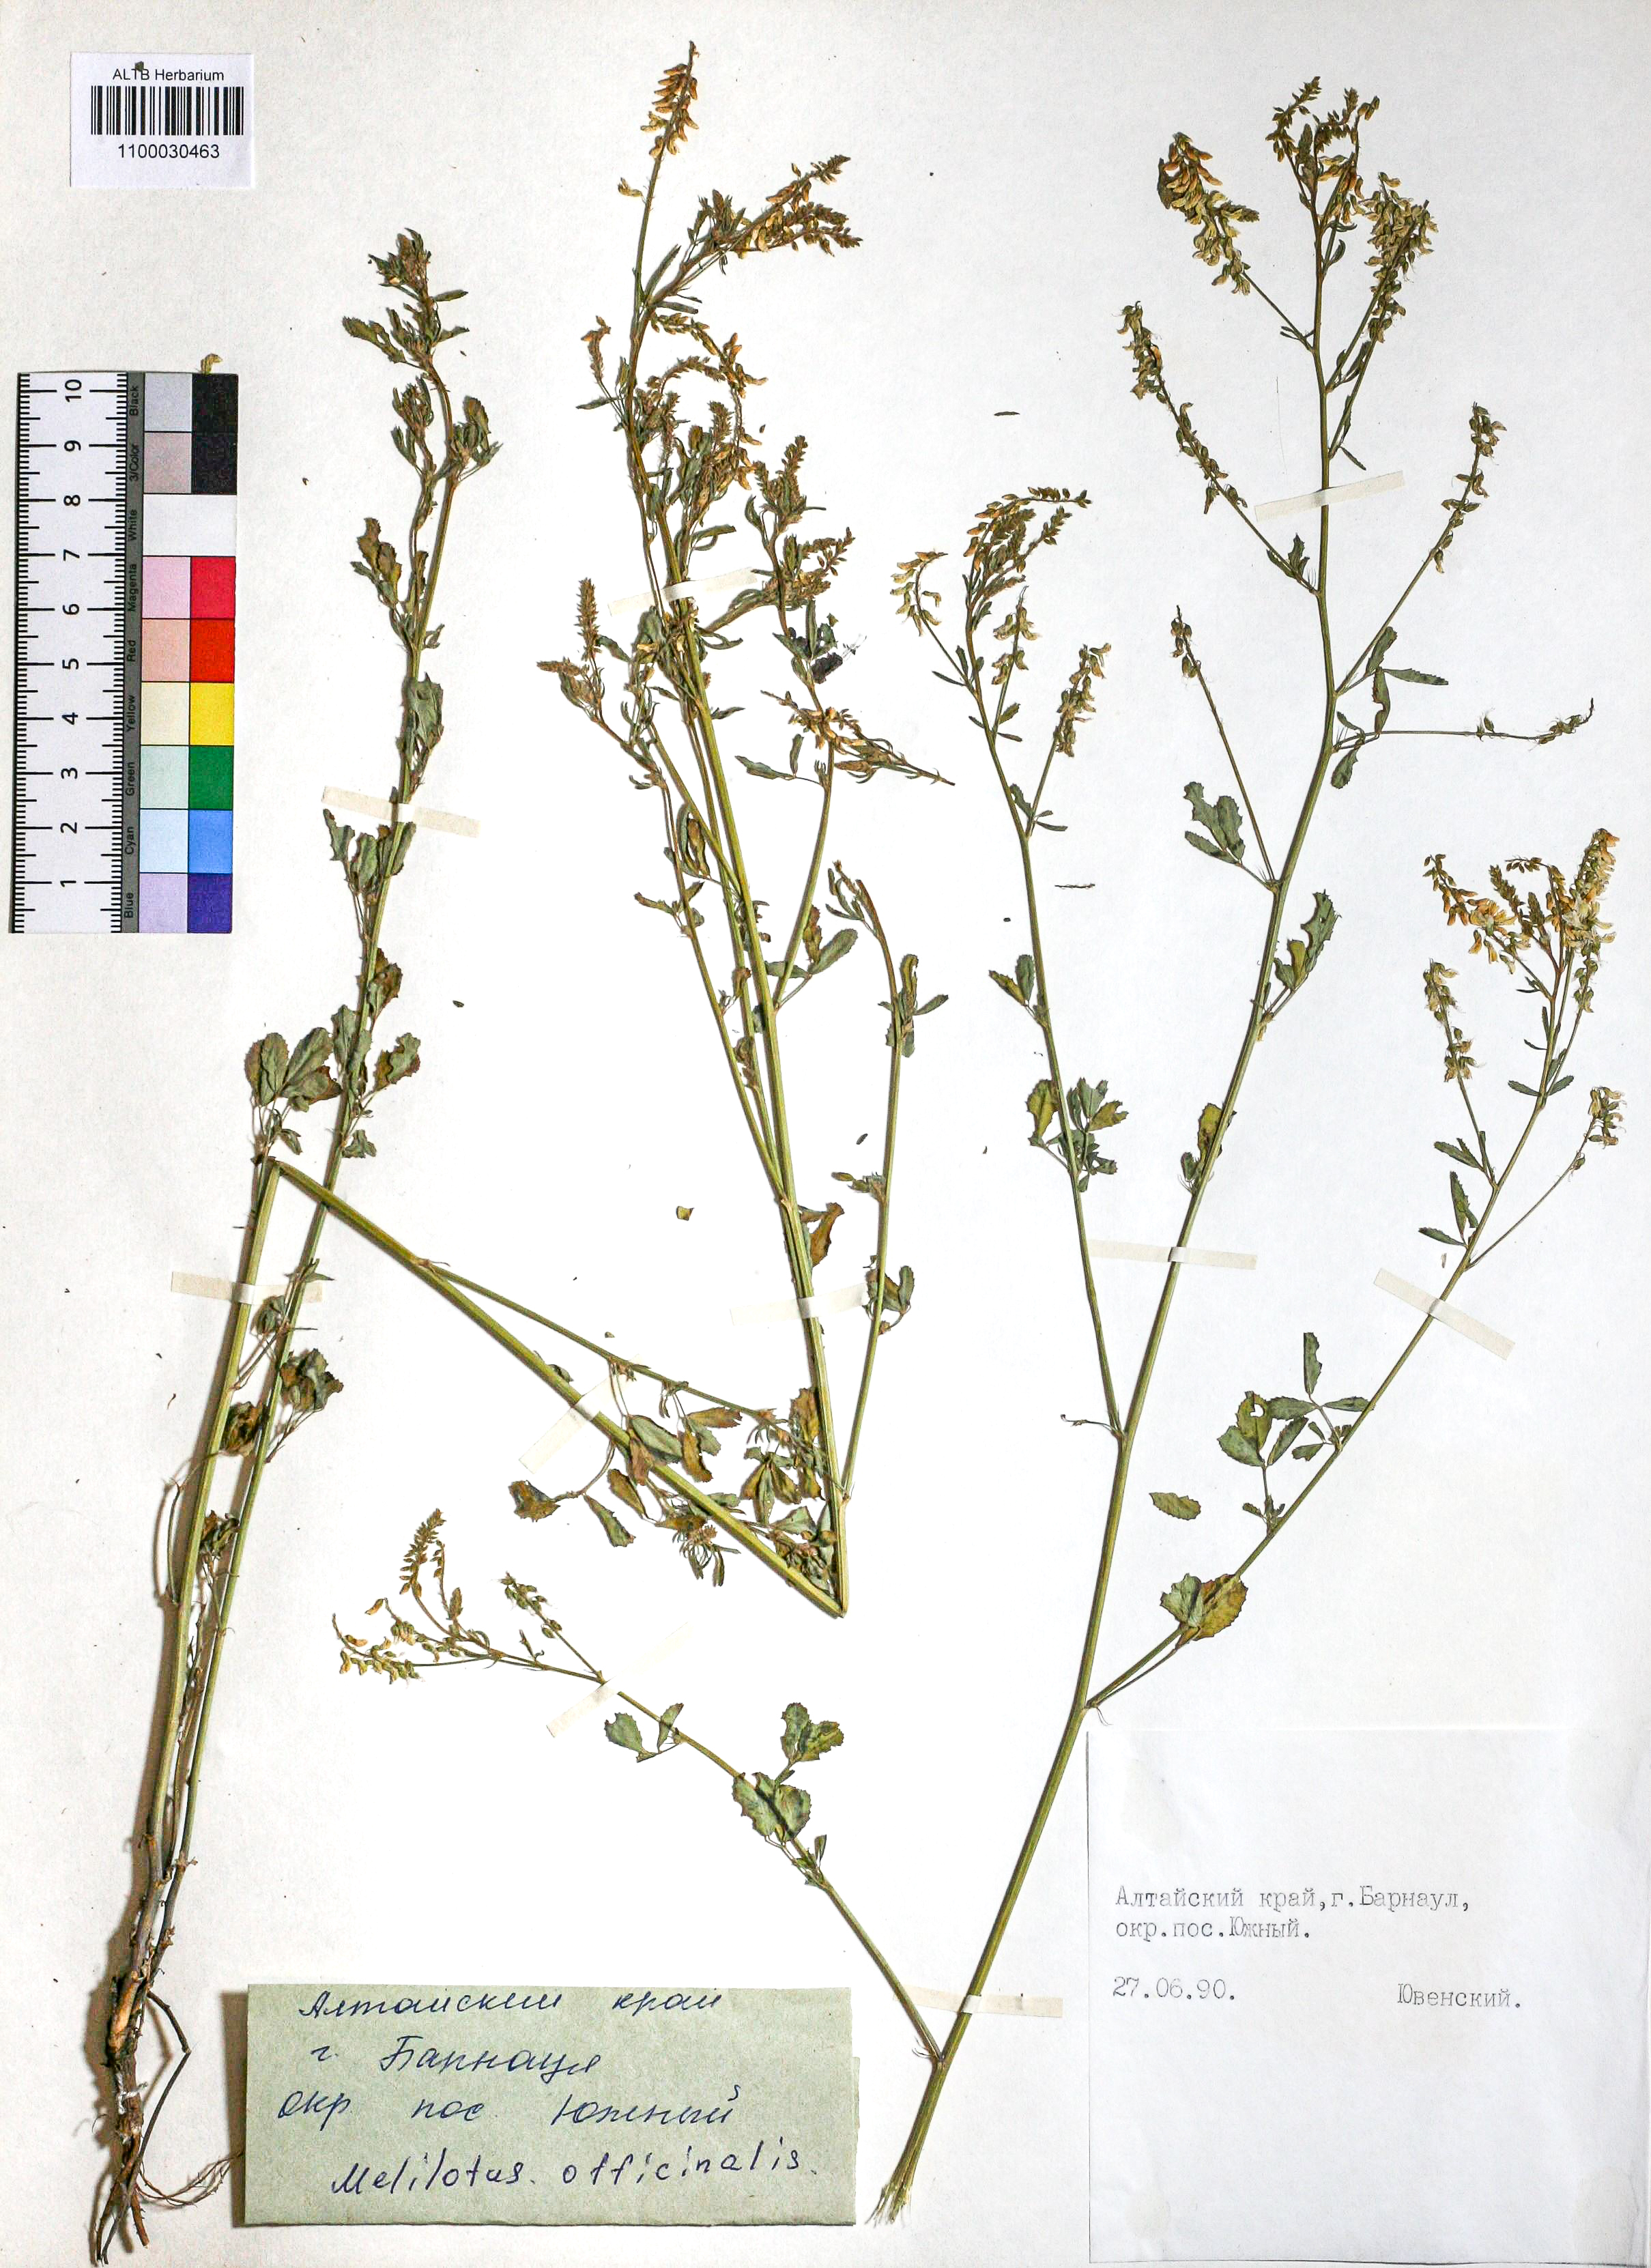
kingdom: Plantae
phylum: Tracheophyta
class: Magnoliopsida
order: Fabales
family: Fabaceae
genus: Melilotus
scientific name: Melilotus officinalis
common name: Sweetclover
